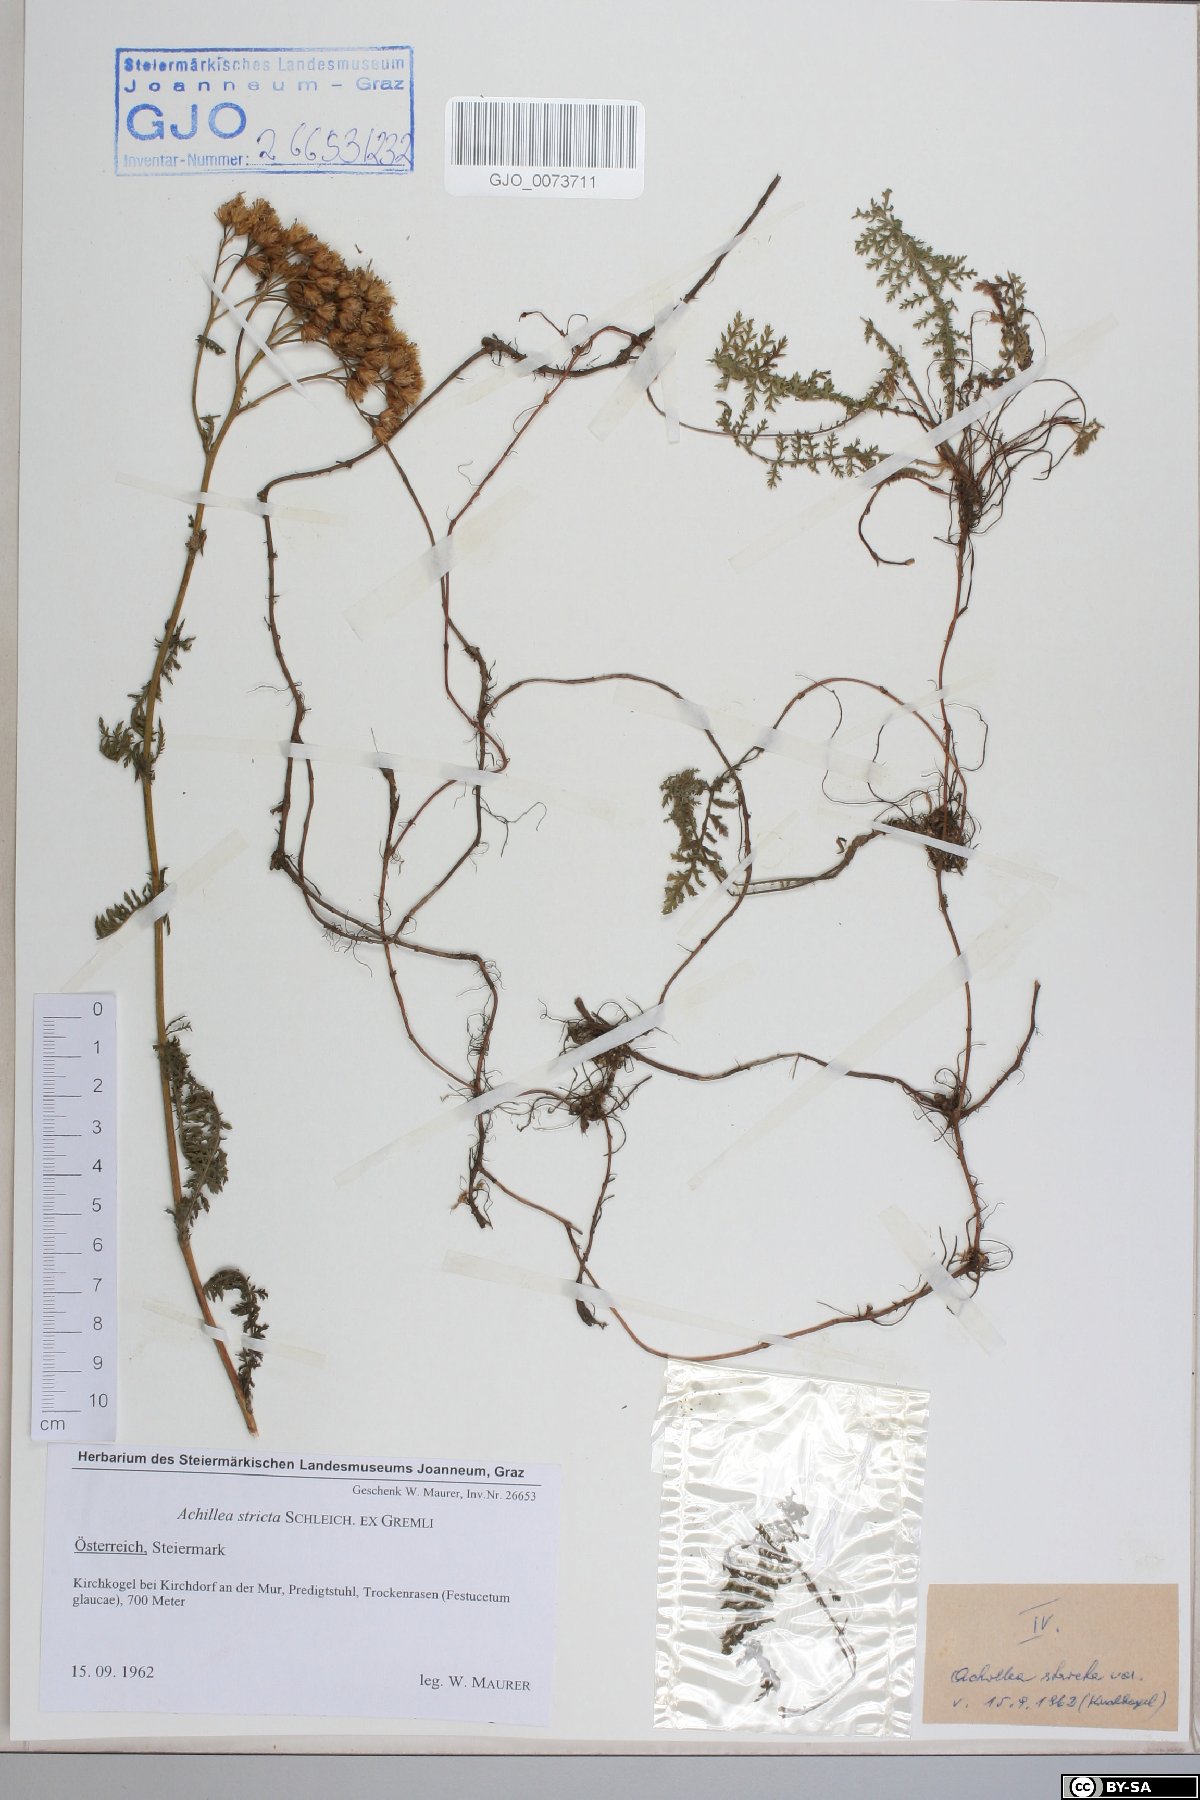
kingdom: Plantae
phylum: Tracheophyta
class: Magnoliopsida
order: Asterales
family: Asteraceae
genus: Achillea
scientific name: Achillea distans
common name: Tall yarrow
